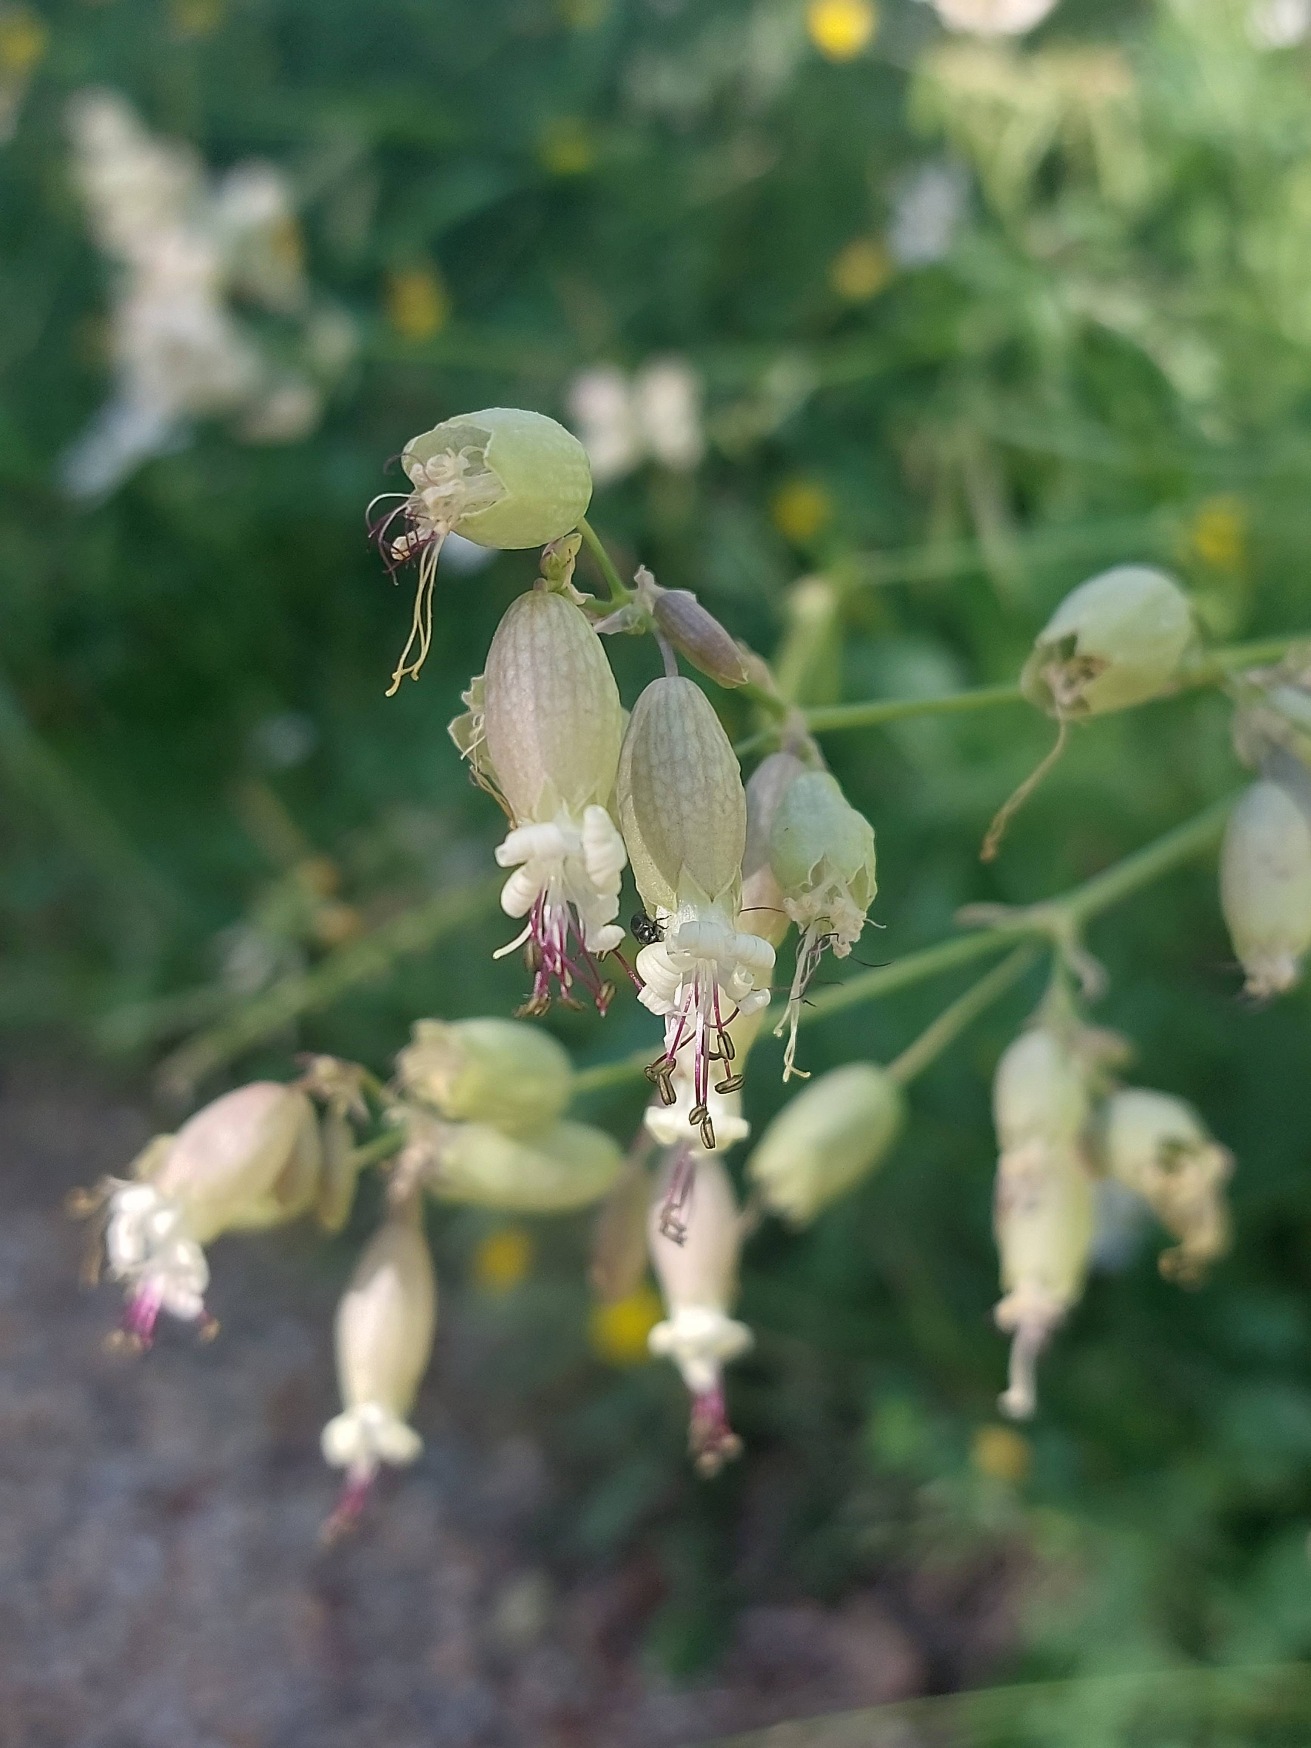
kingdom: Plantae
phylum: Tracheophyta
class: Magnoliopsida
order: Caryophyllales
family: Caryophyllaceae
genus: Silene
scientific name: Silene vulgaris
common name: Blæresmælde
